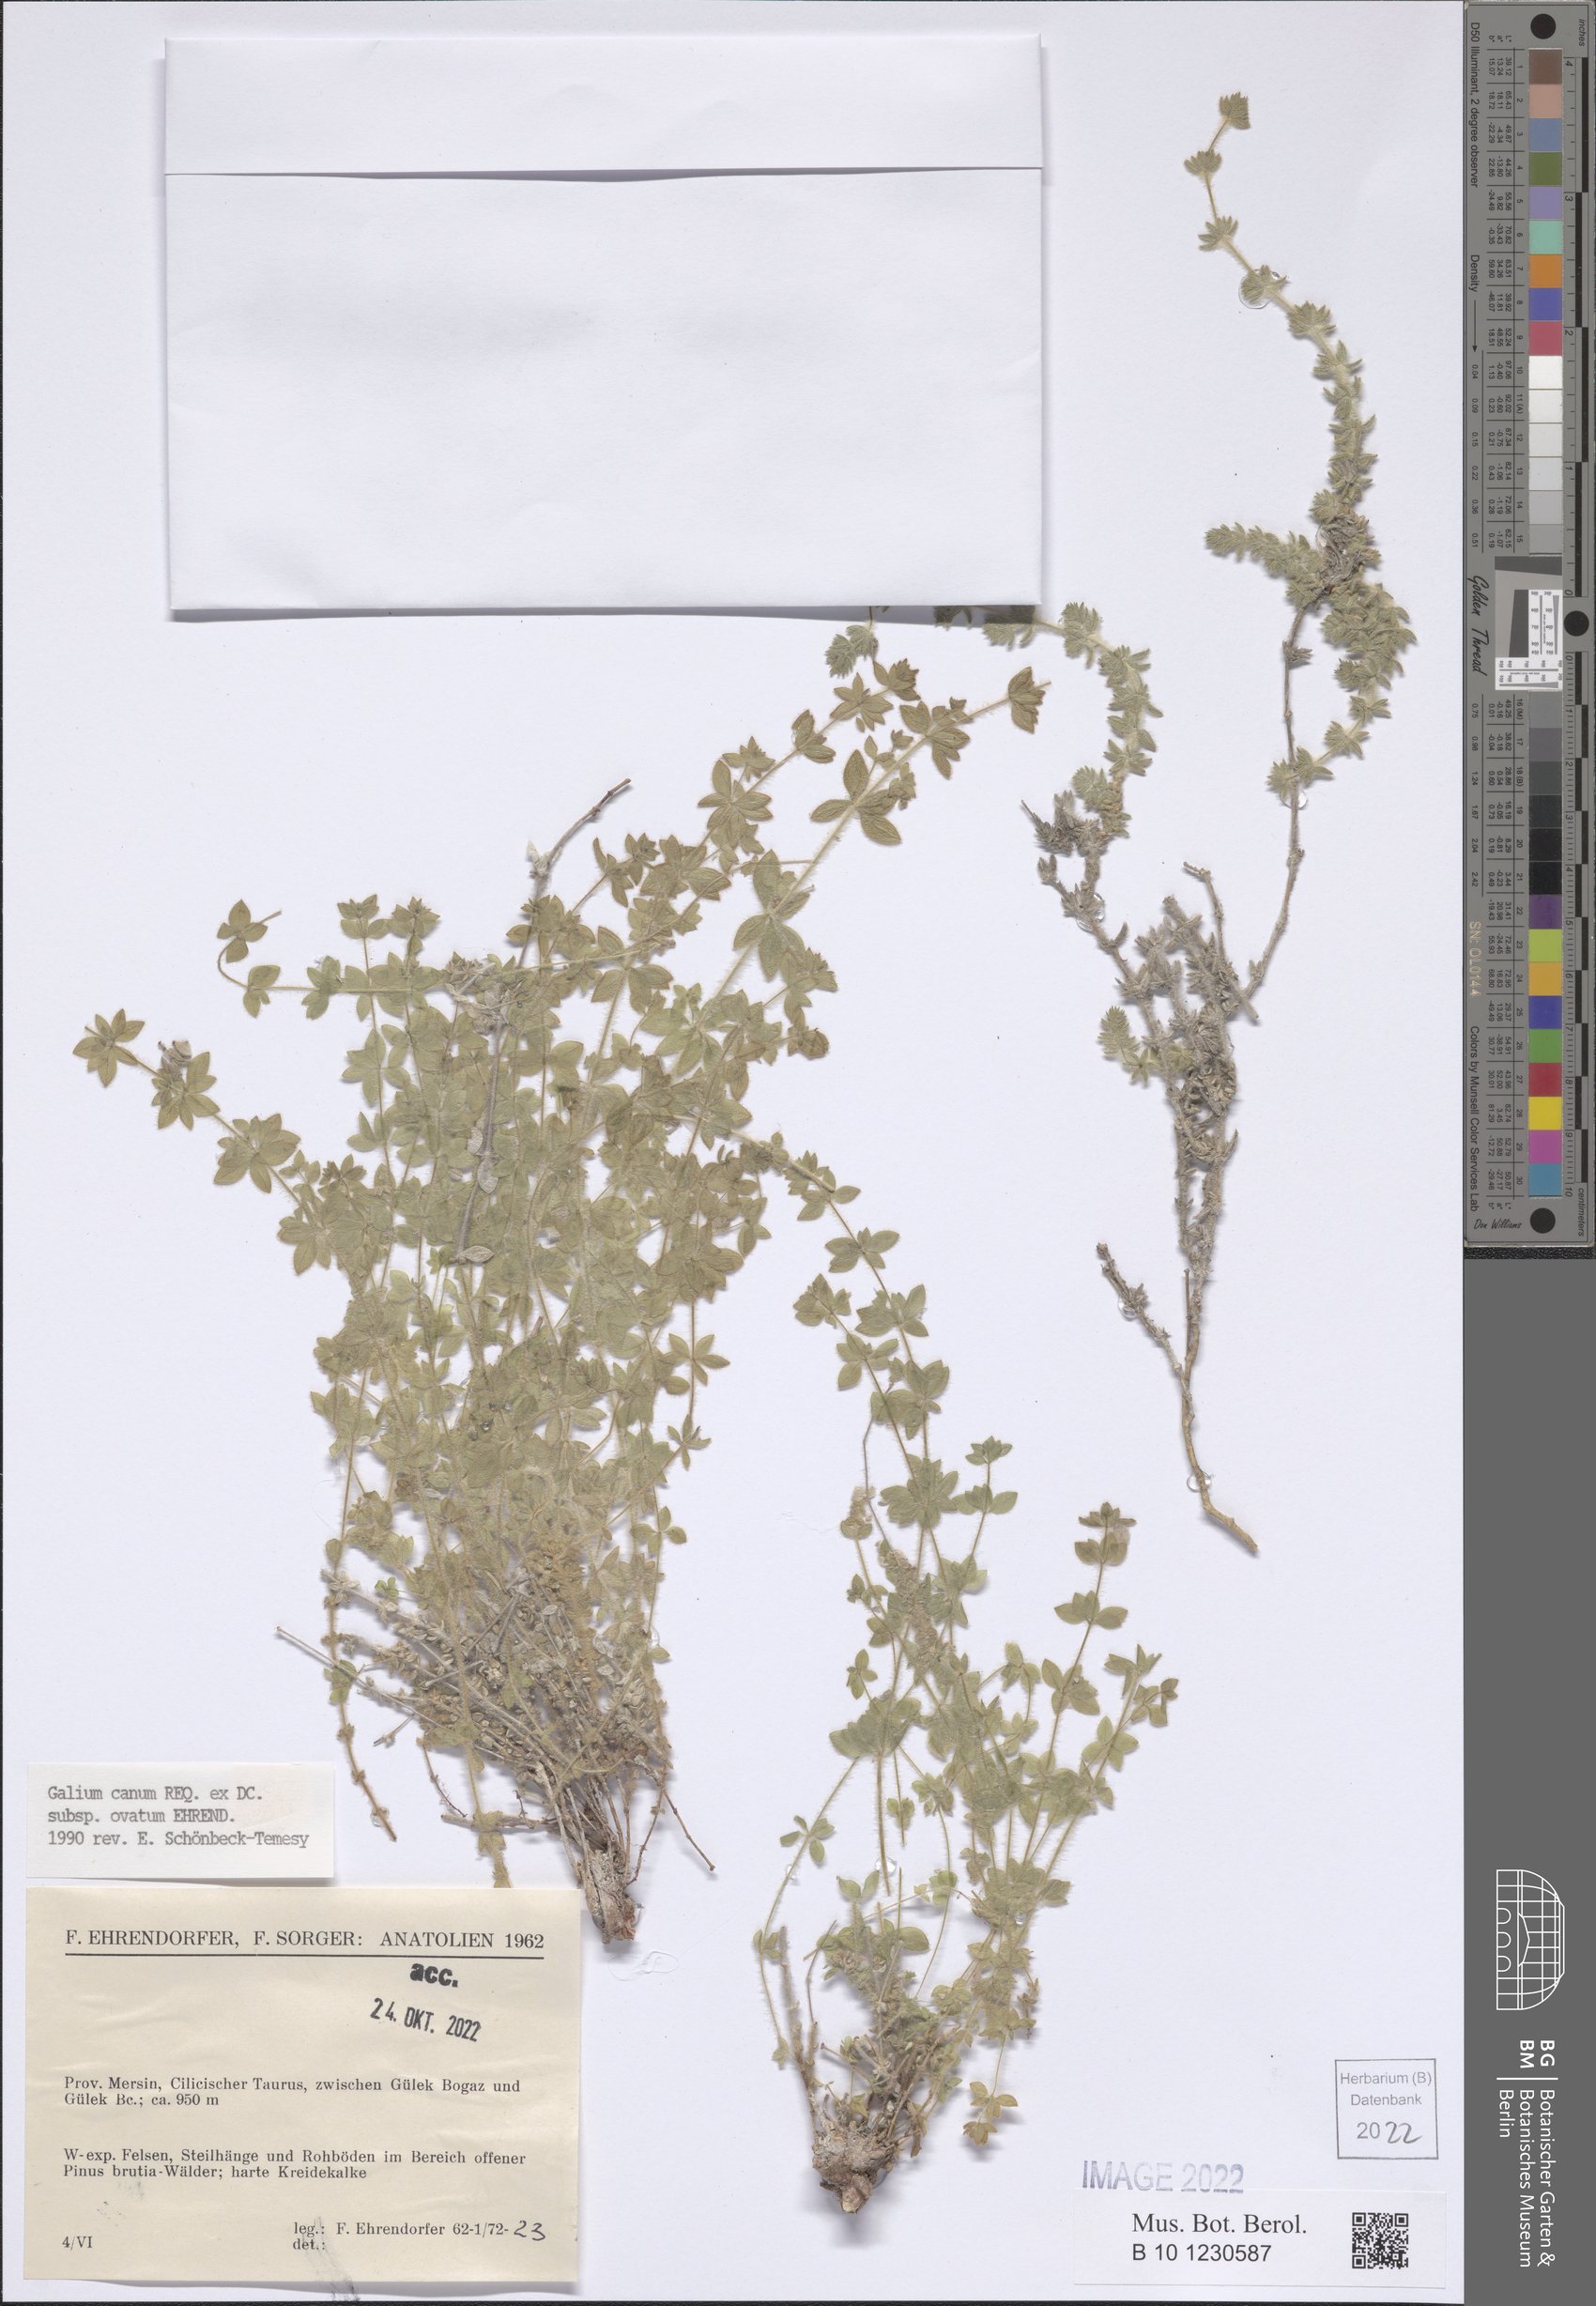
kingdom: Plantae
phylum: Tracheophyta
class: Magnoliopsida
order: Gentianales
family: Rubiaceae
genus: Galium
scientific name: Galium canum
